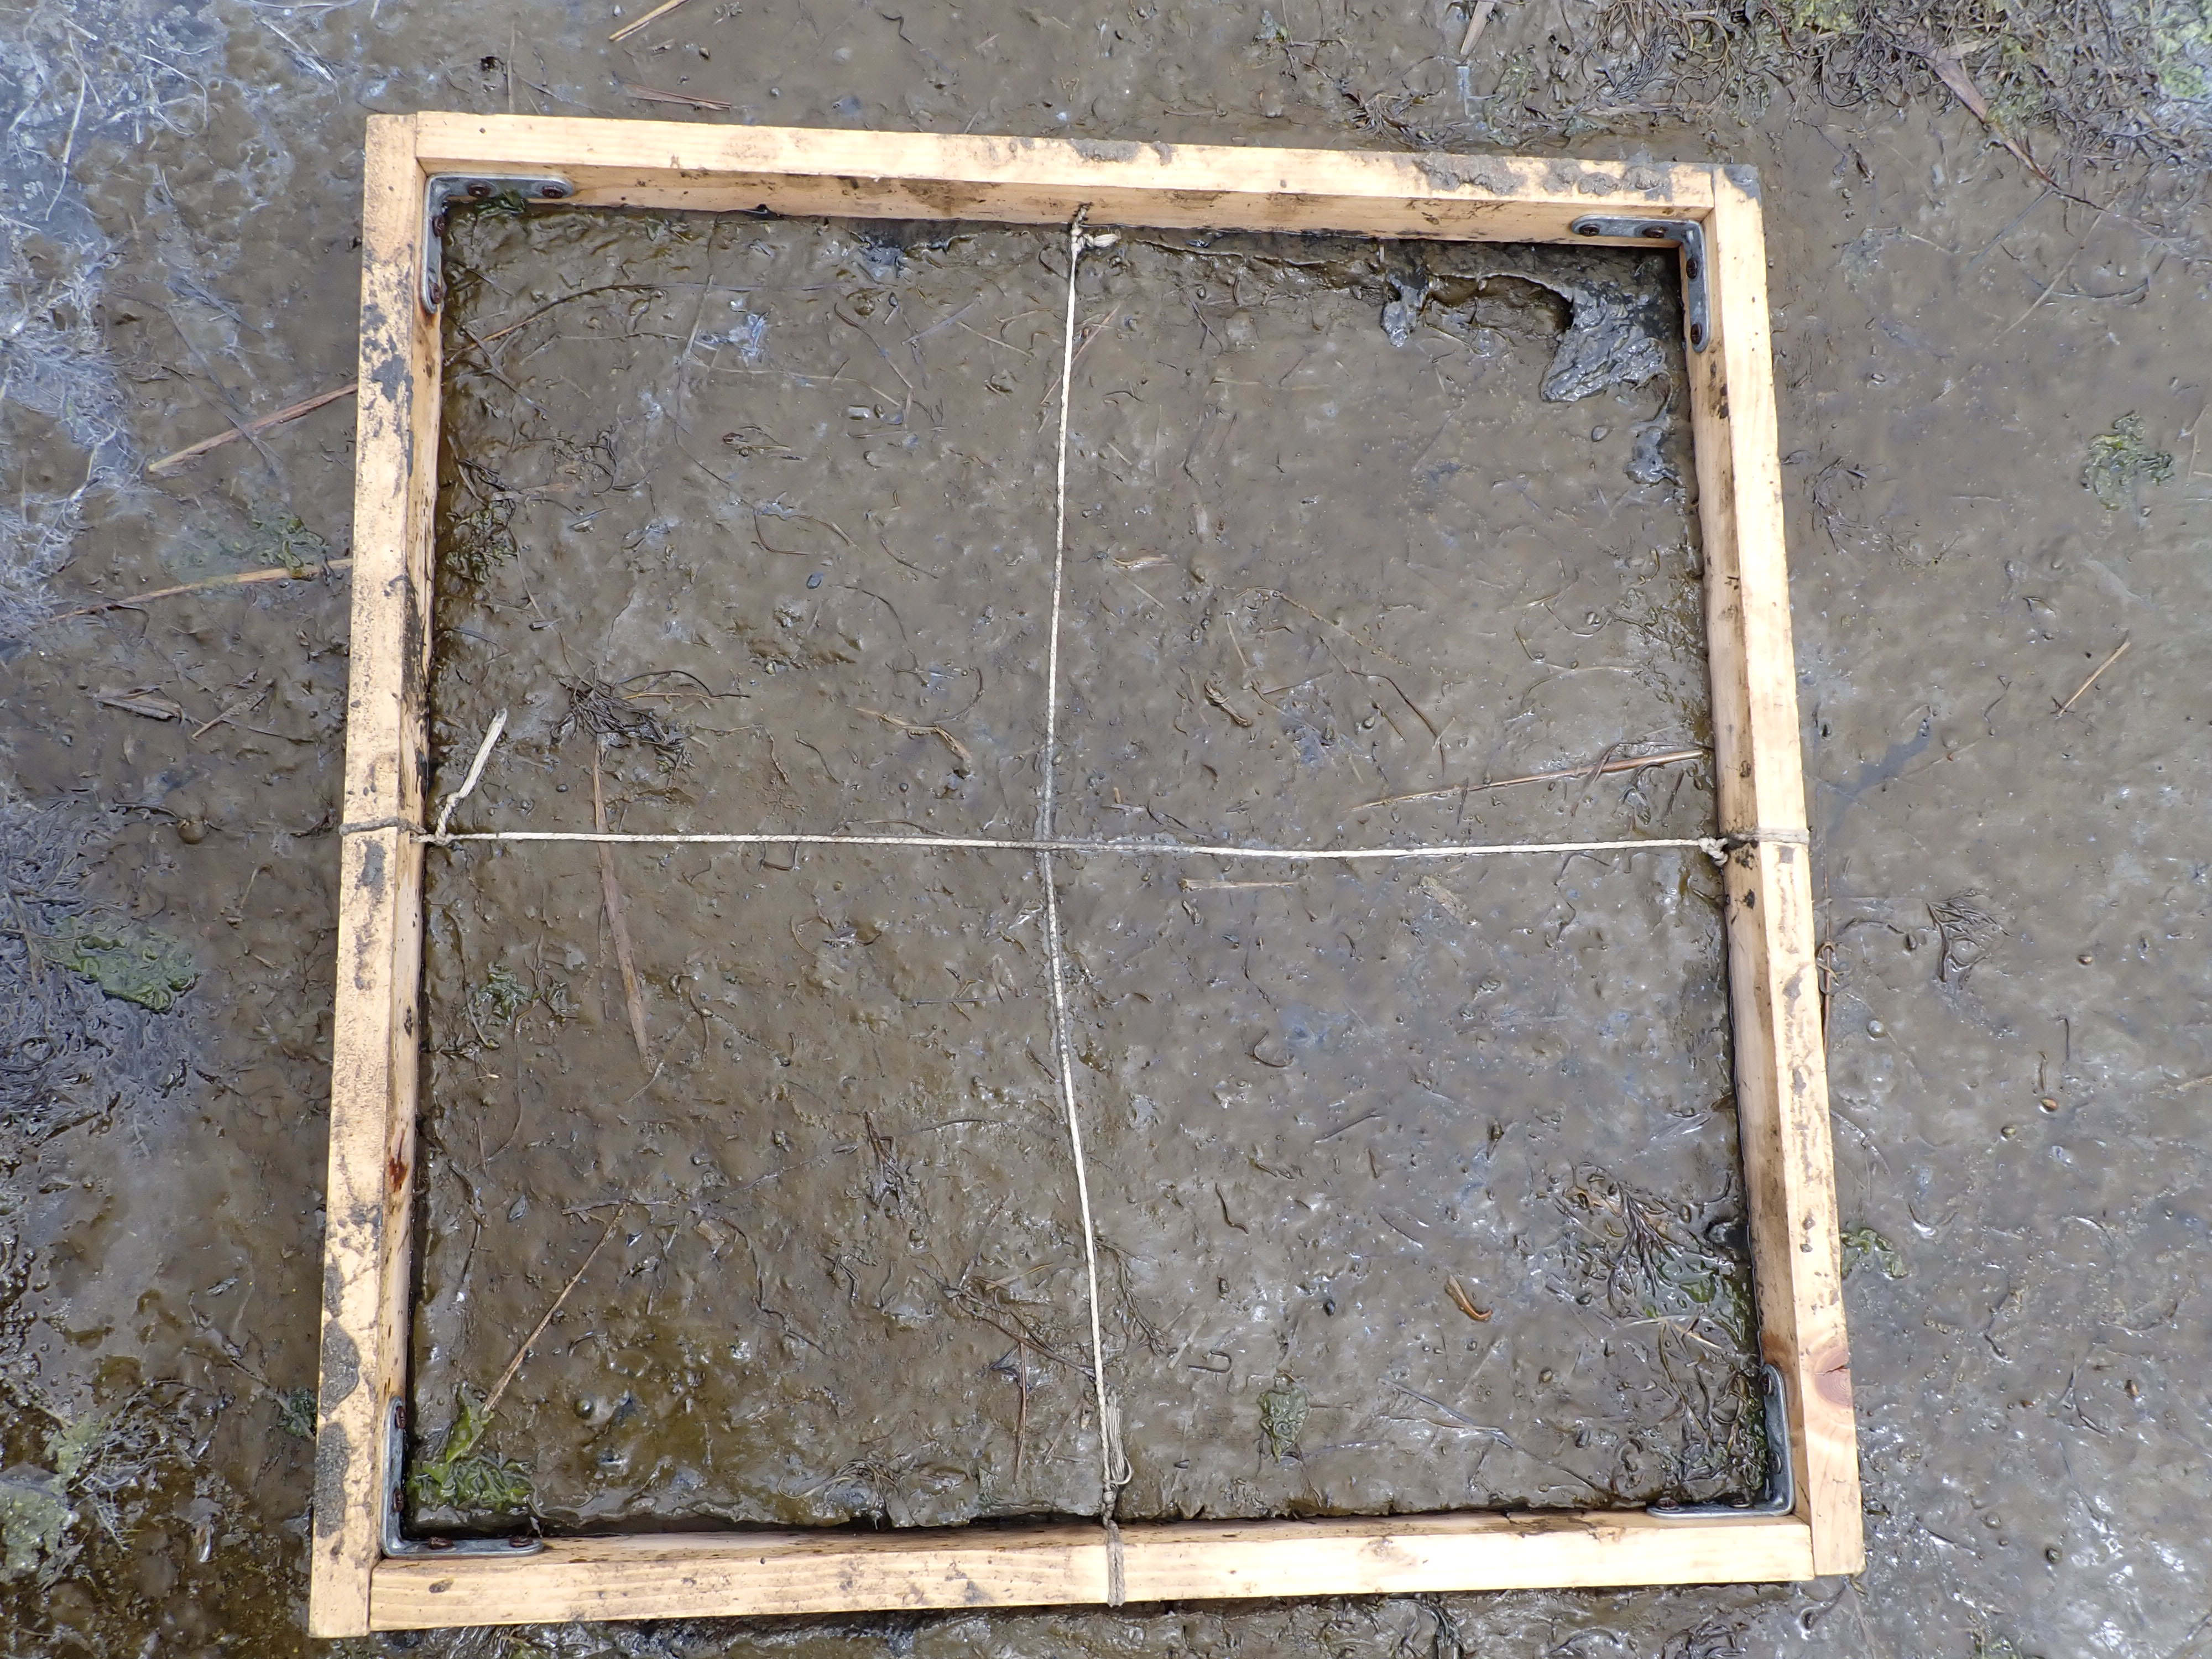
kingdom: Plantae
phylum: Chlorophyta
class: Ulvophyceae
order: Ulvales
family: Ulvaceae
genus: Ulva
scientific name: Ulva
